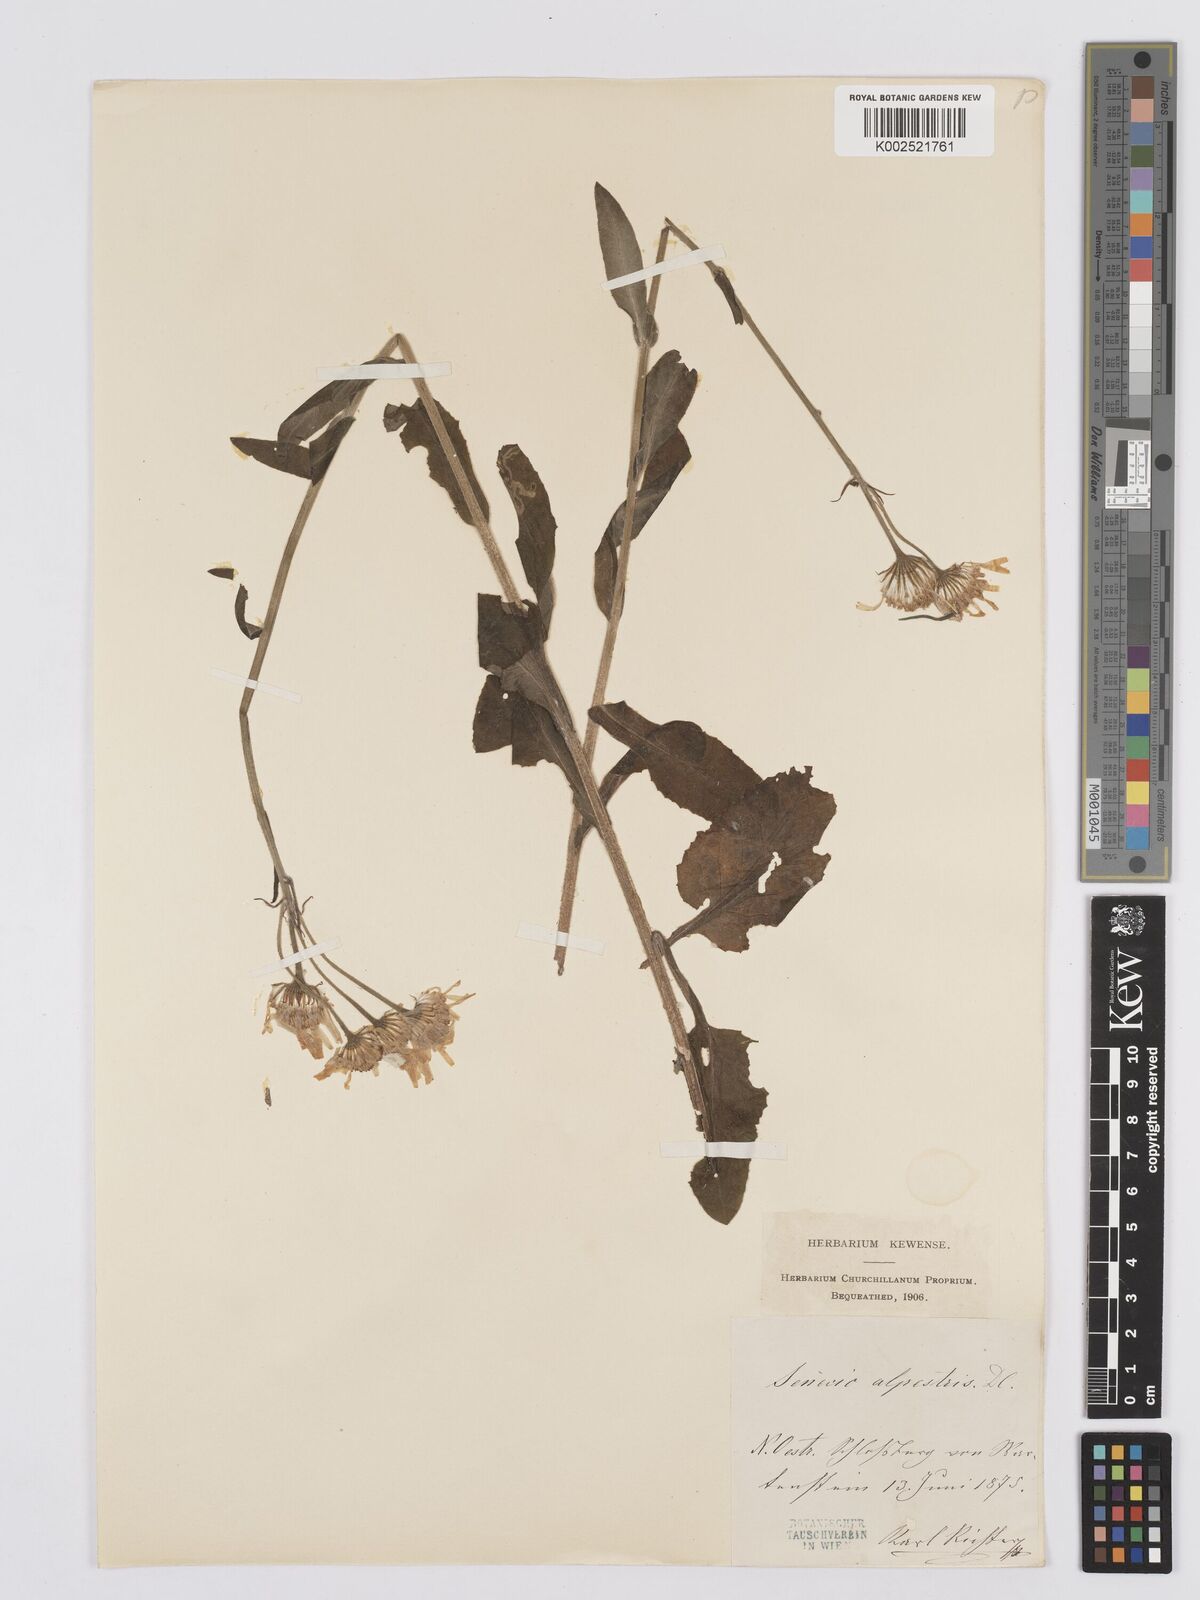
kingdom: Plantae
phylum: Tracheophyta
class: Magnoliopsida
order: Asterales
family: Asteraceae
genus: Tephroseris
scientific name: Tephroseris
